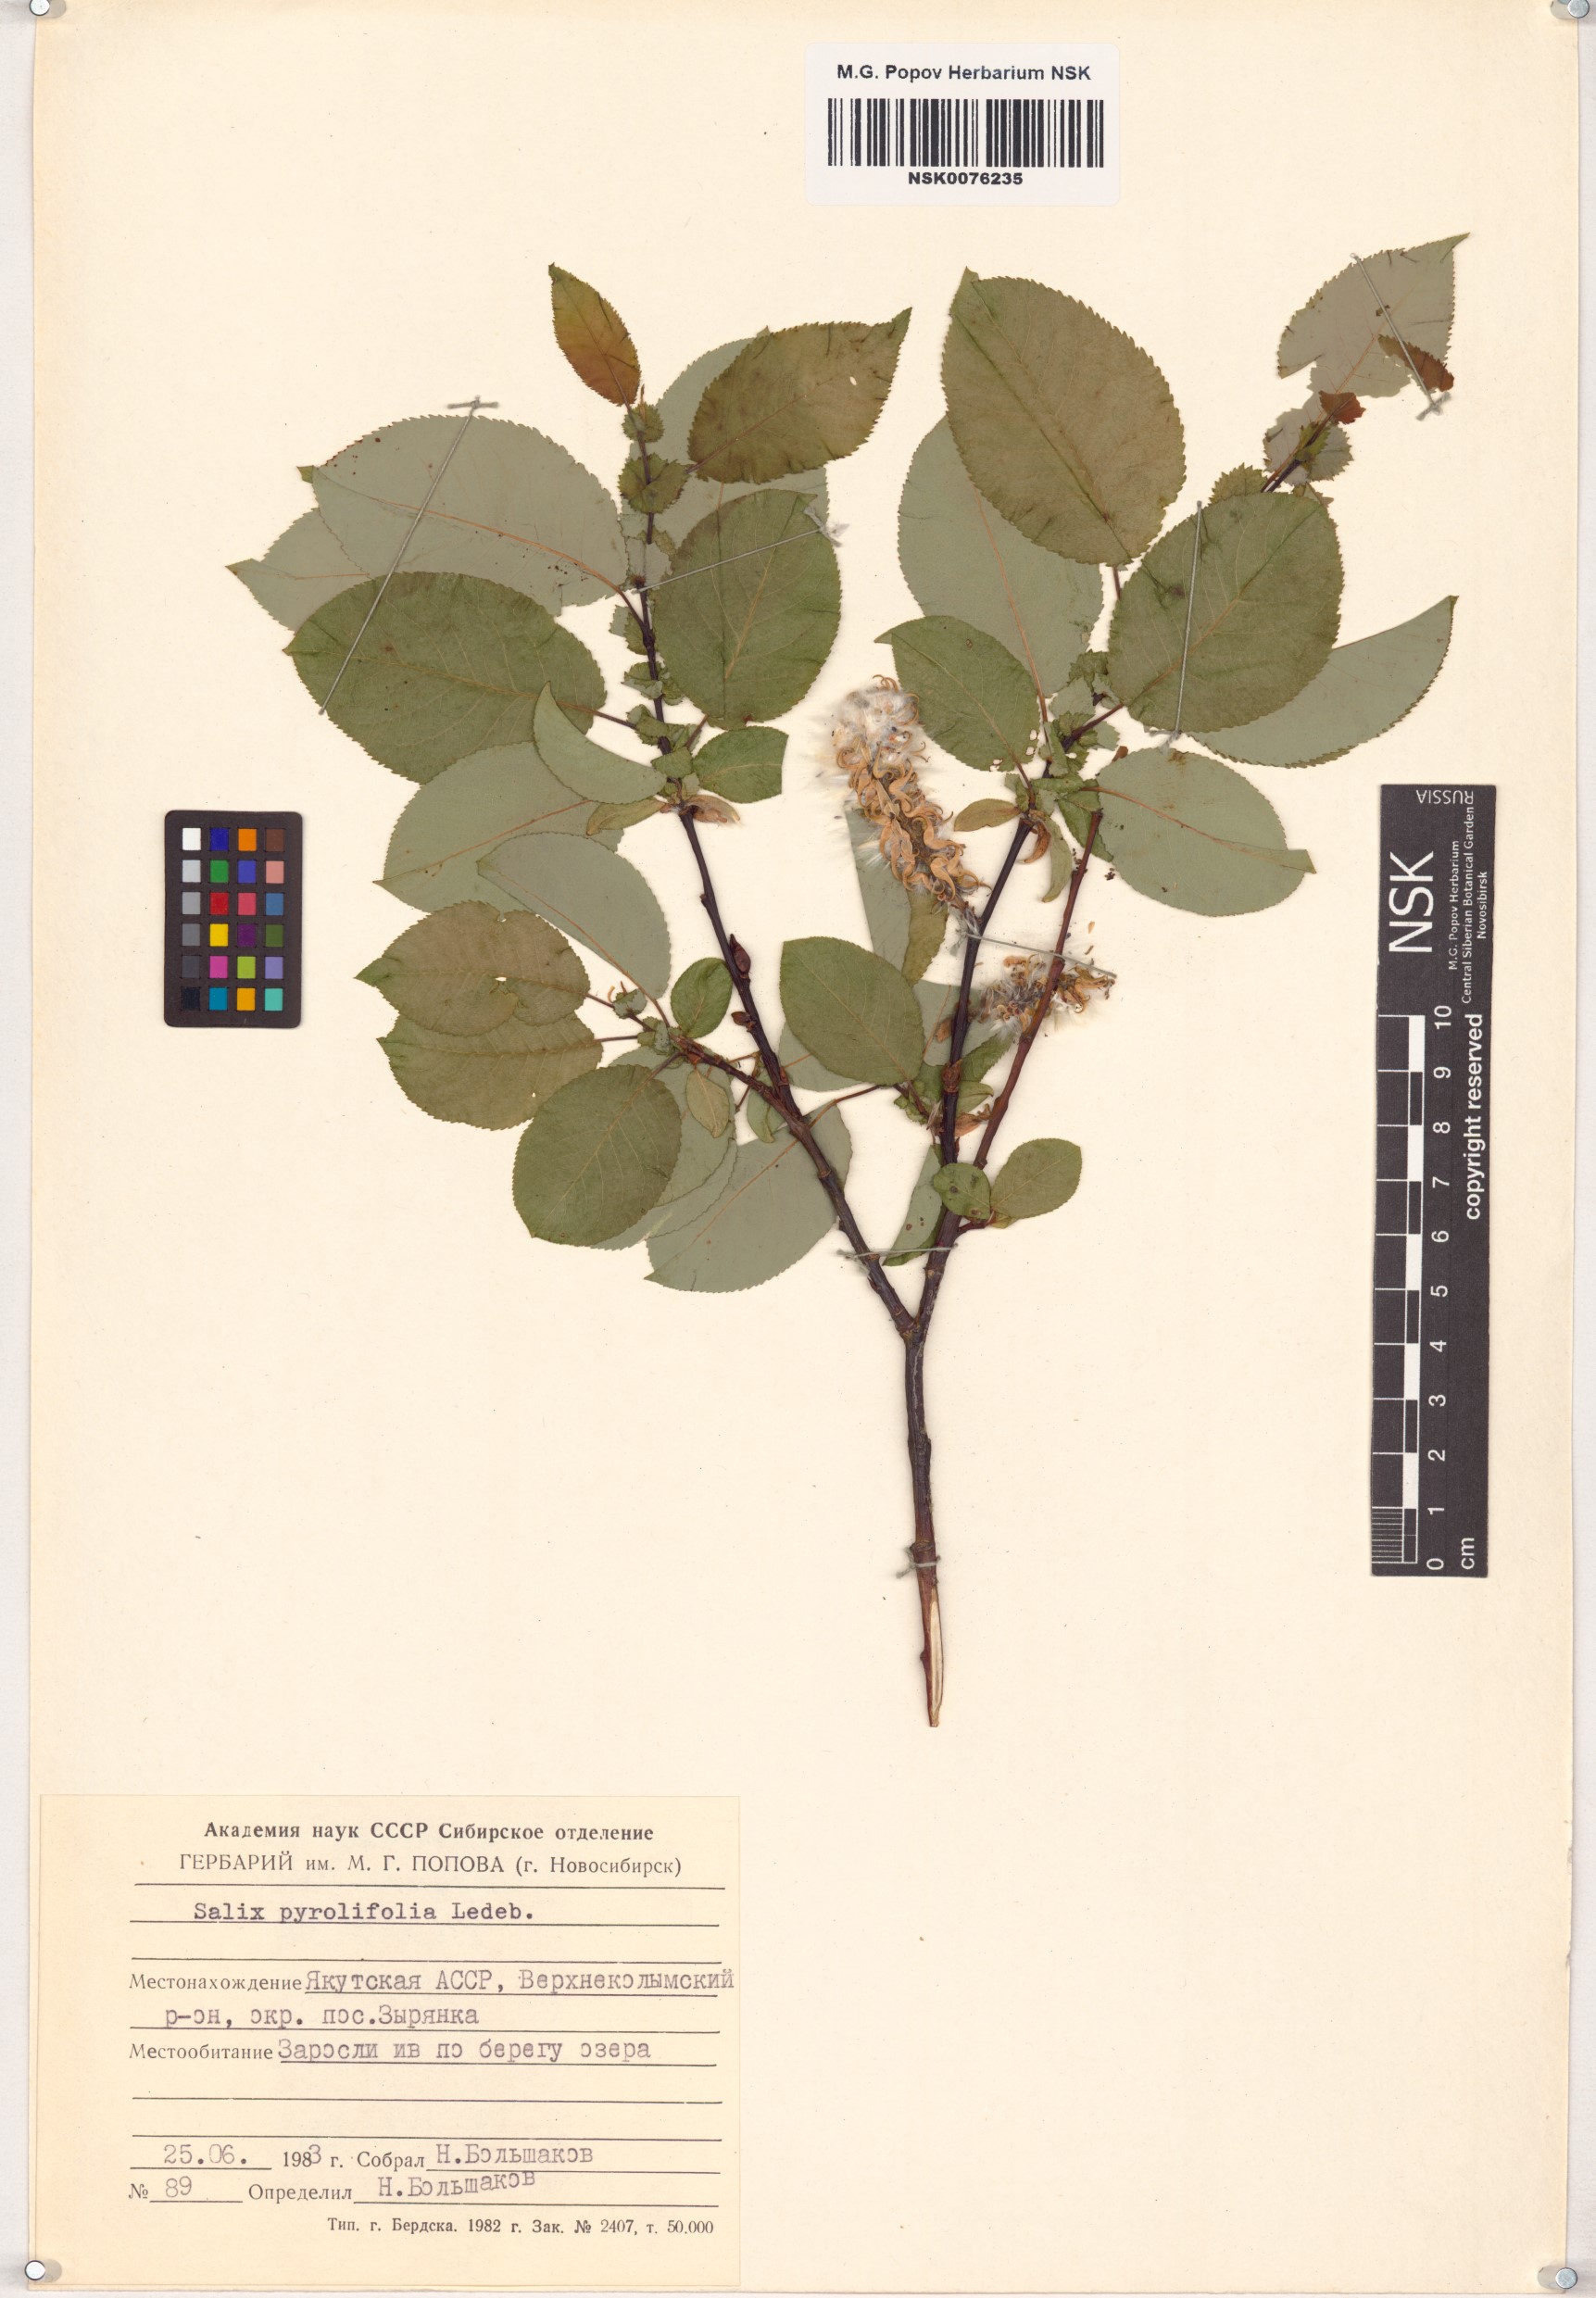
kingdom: Plantae
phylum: Tracheophyta
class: Magnoliopsida
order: Malpighiales
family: Salicaceae
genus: Salix
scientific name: Salix pyrolifolia
